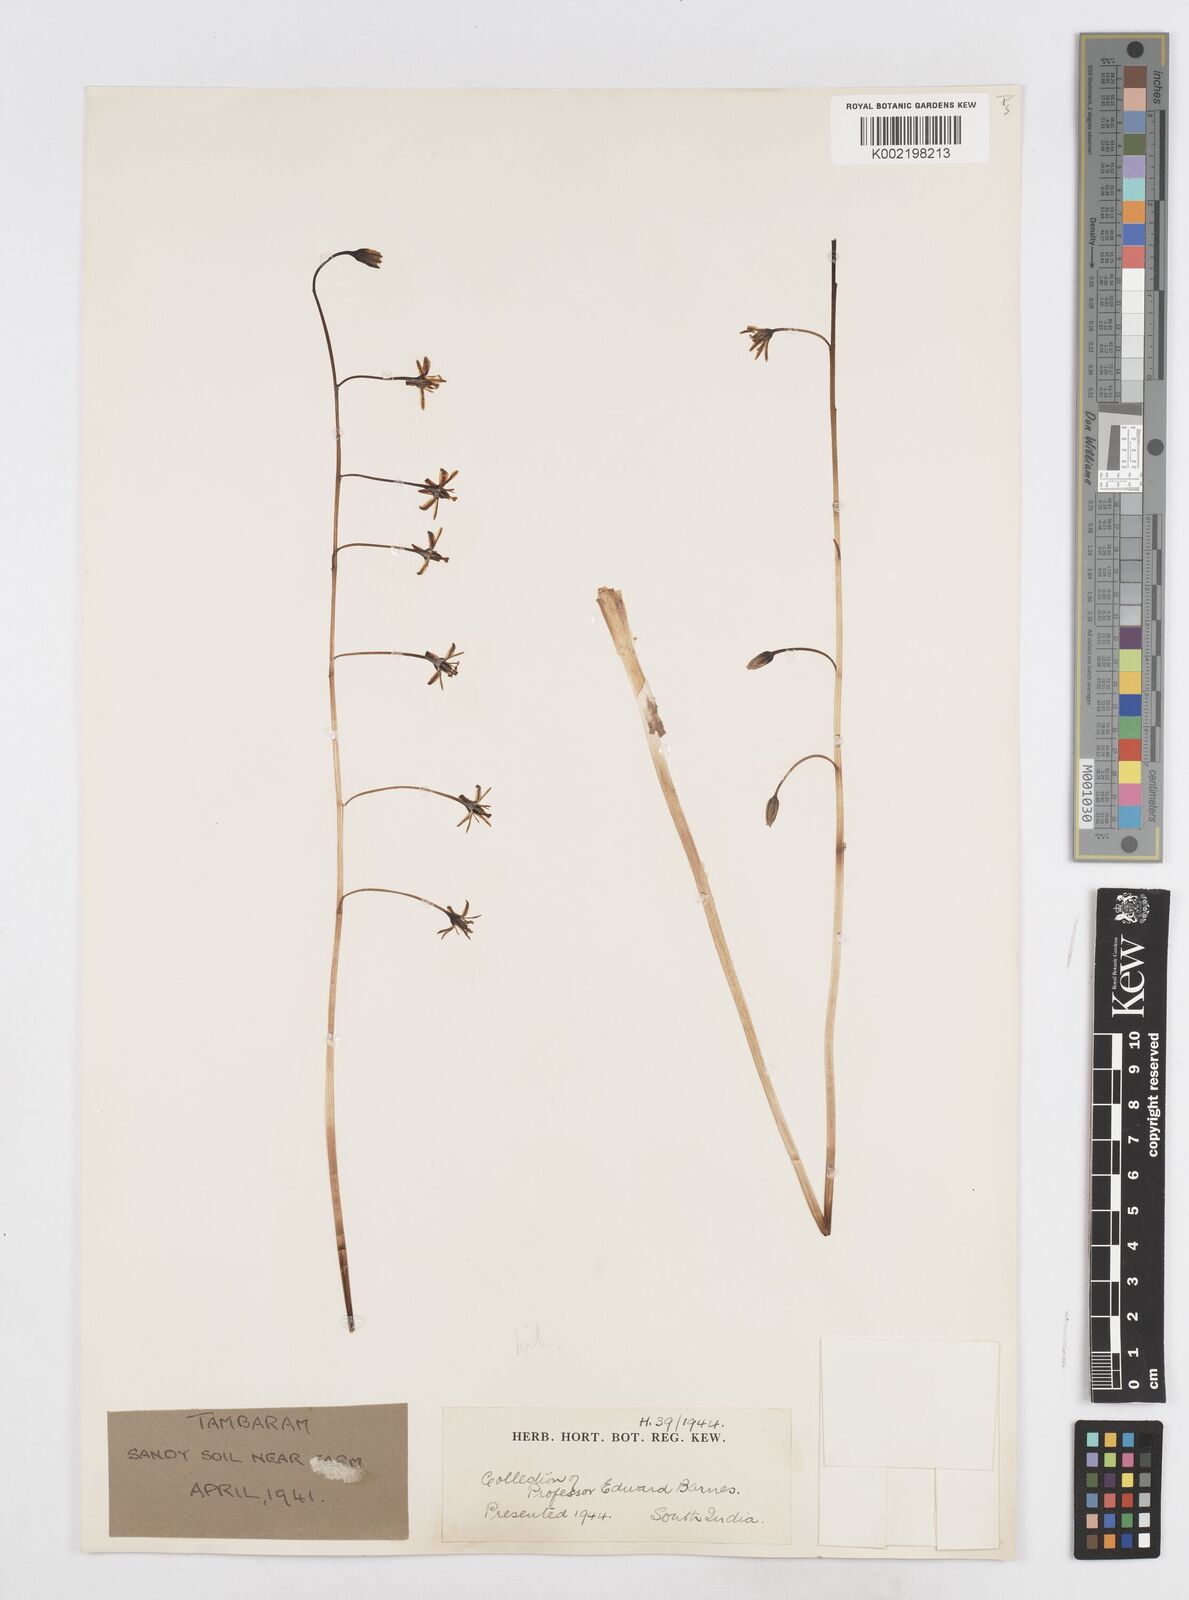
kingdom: Plantae
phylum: Tracheophyta
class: Liliopsida
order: Asparagales
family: Asparagaceae
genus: Drimia
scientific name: Drimia indica
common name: Indian-squill
